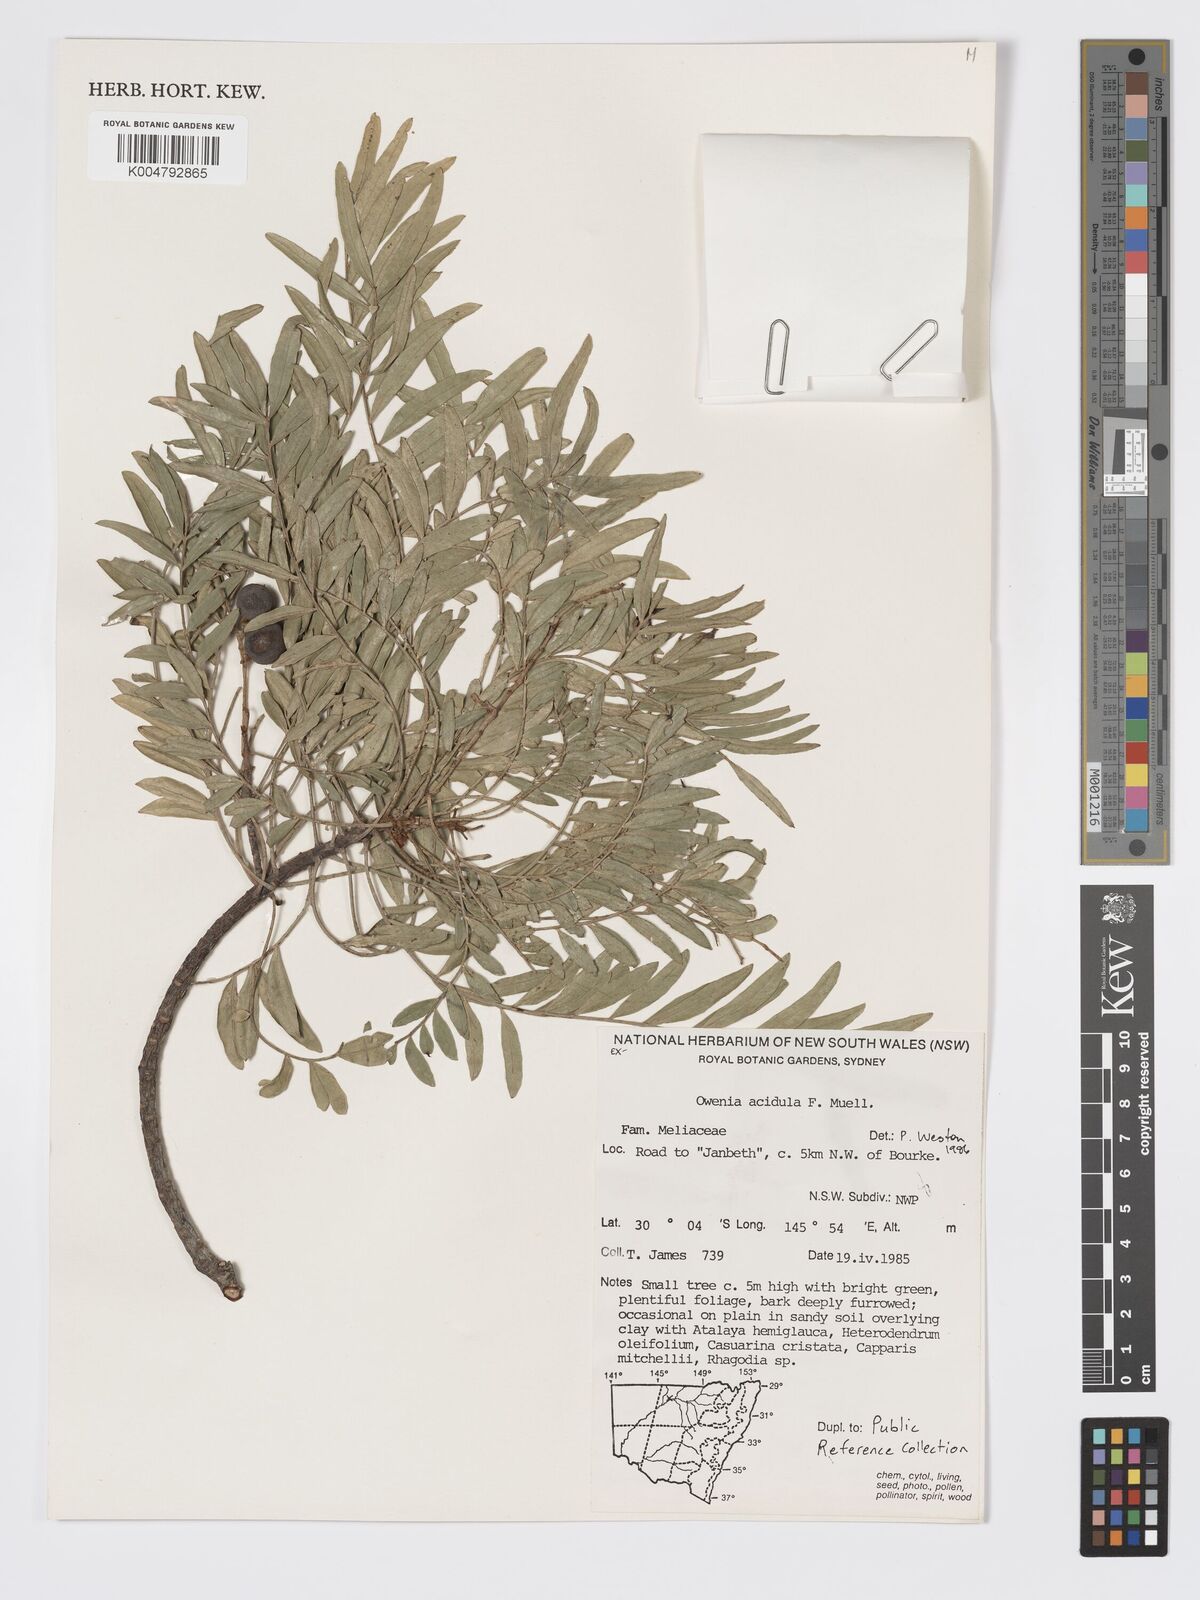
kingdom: Plantae
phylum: Tracheophyta
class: Magnoliopsida
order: Sapindales
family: Meliaceae
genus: Owenia
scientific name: Owenia acidula
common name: Tulipwood
